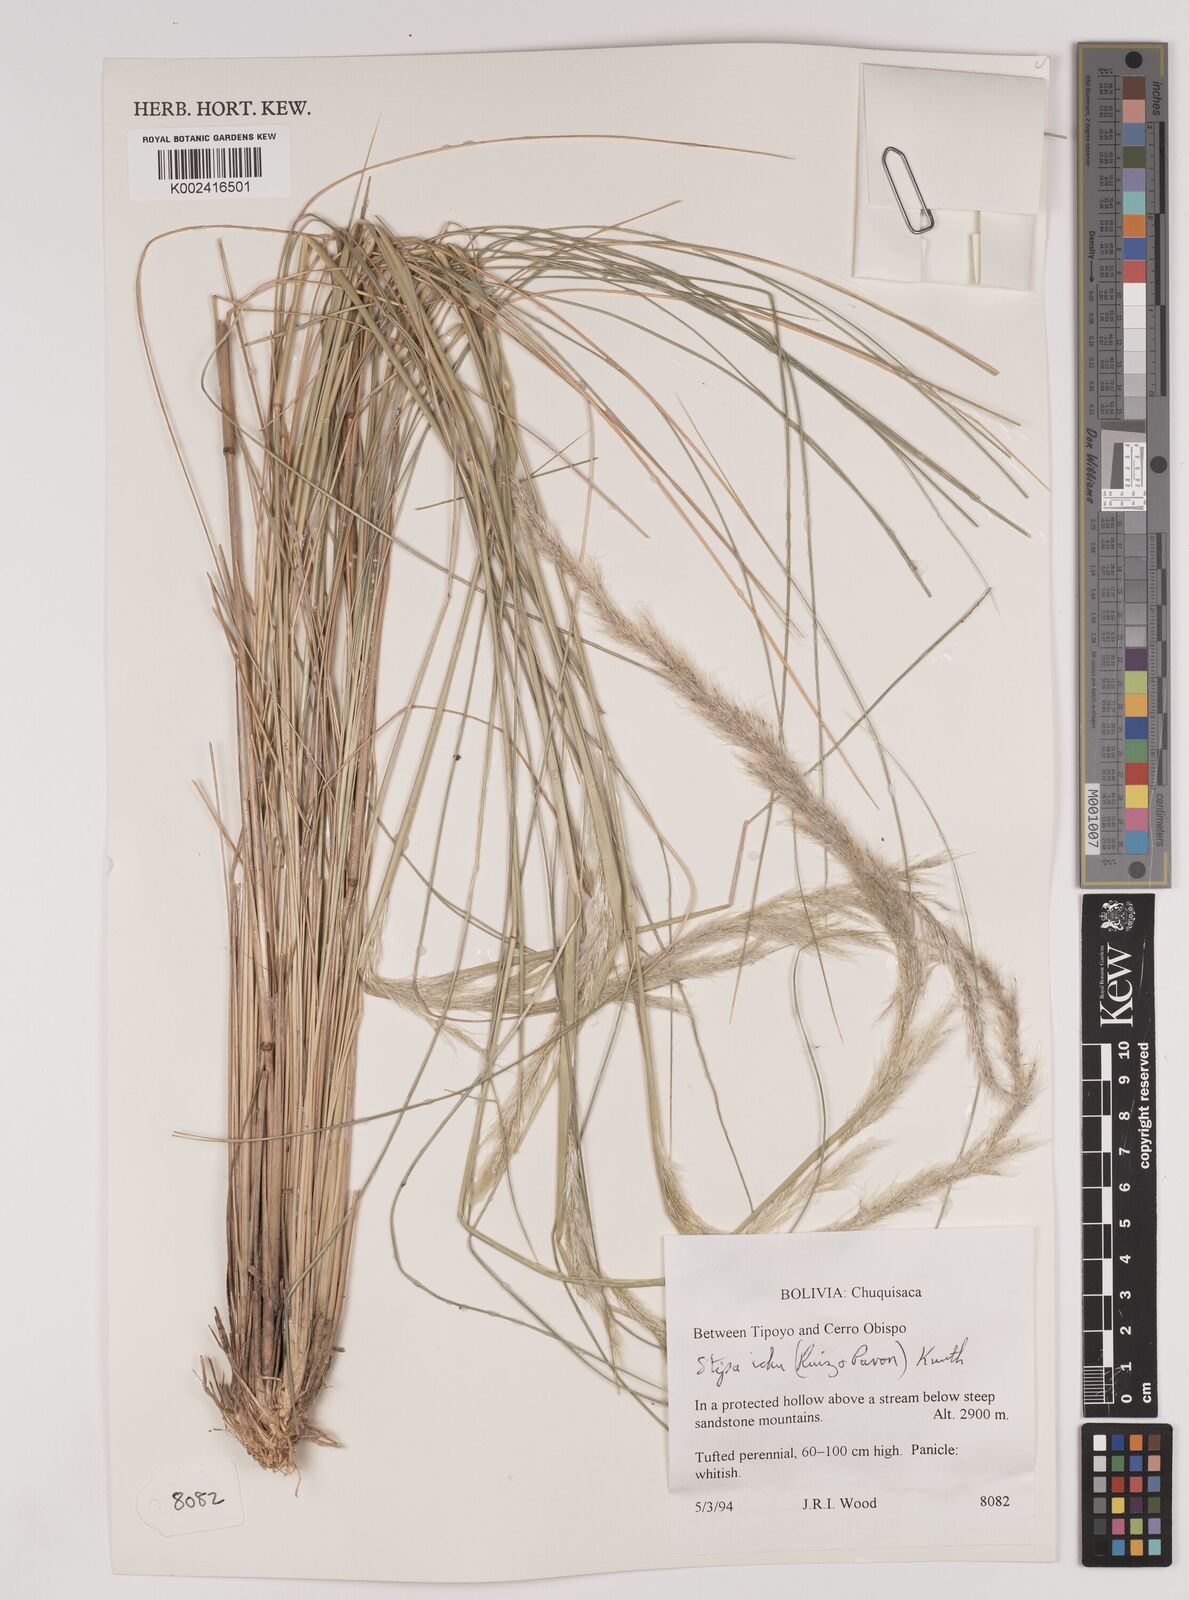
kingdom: Plantae
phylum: Tracheophyta
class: Liliopsida
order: Poales
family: Poaceae
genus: Jarava
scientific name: Jarava ichu
